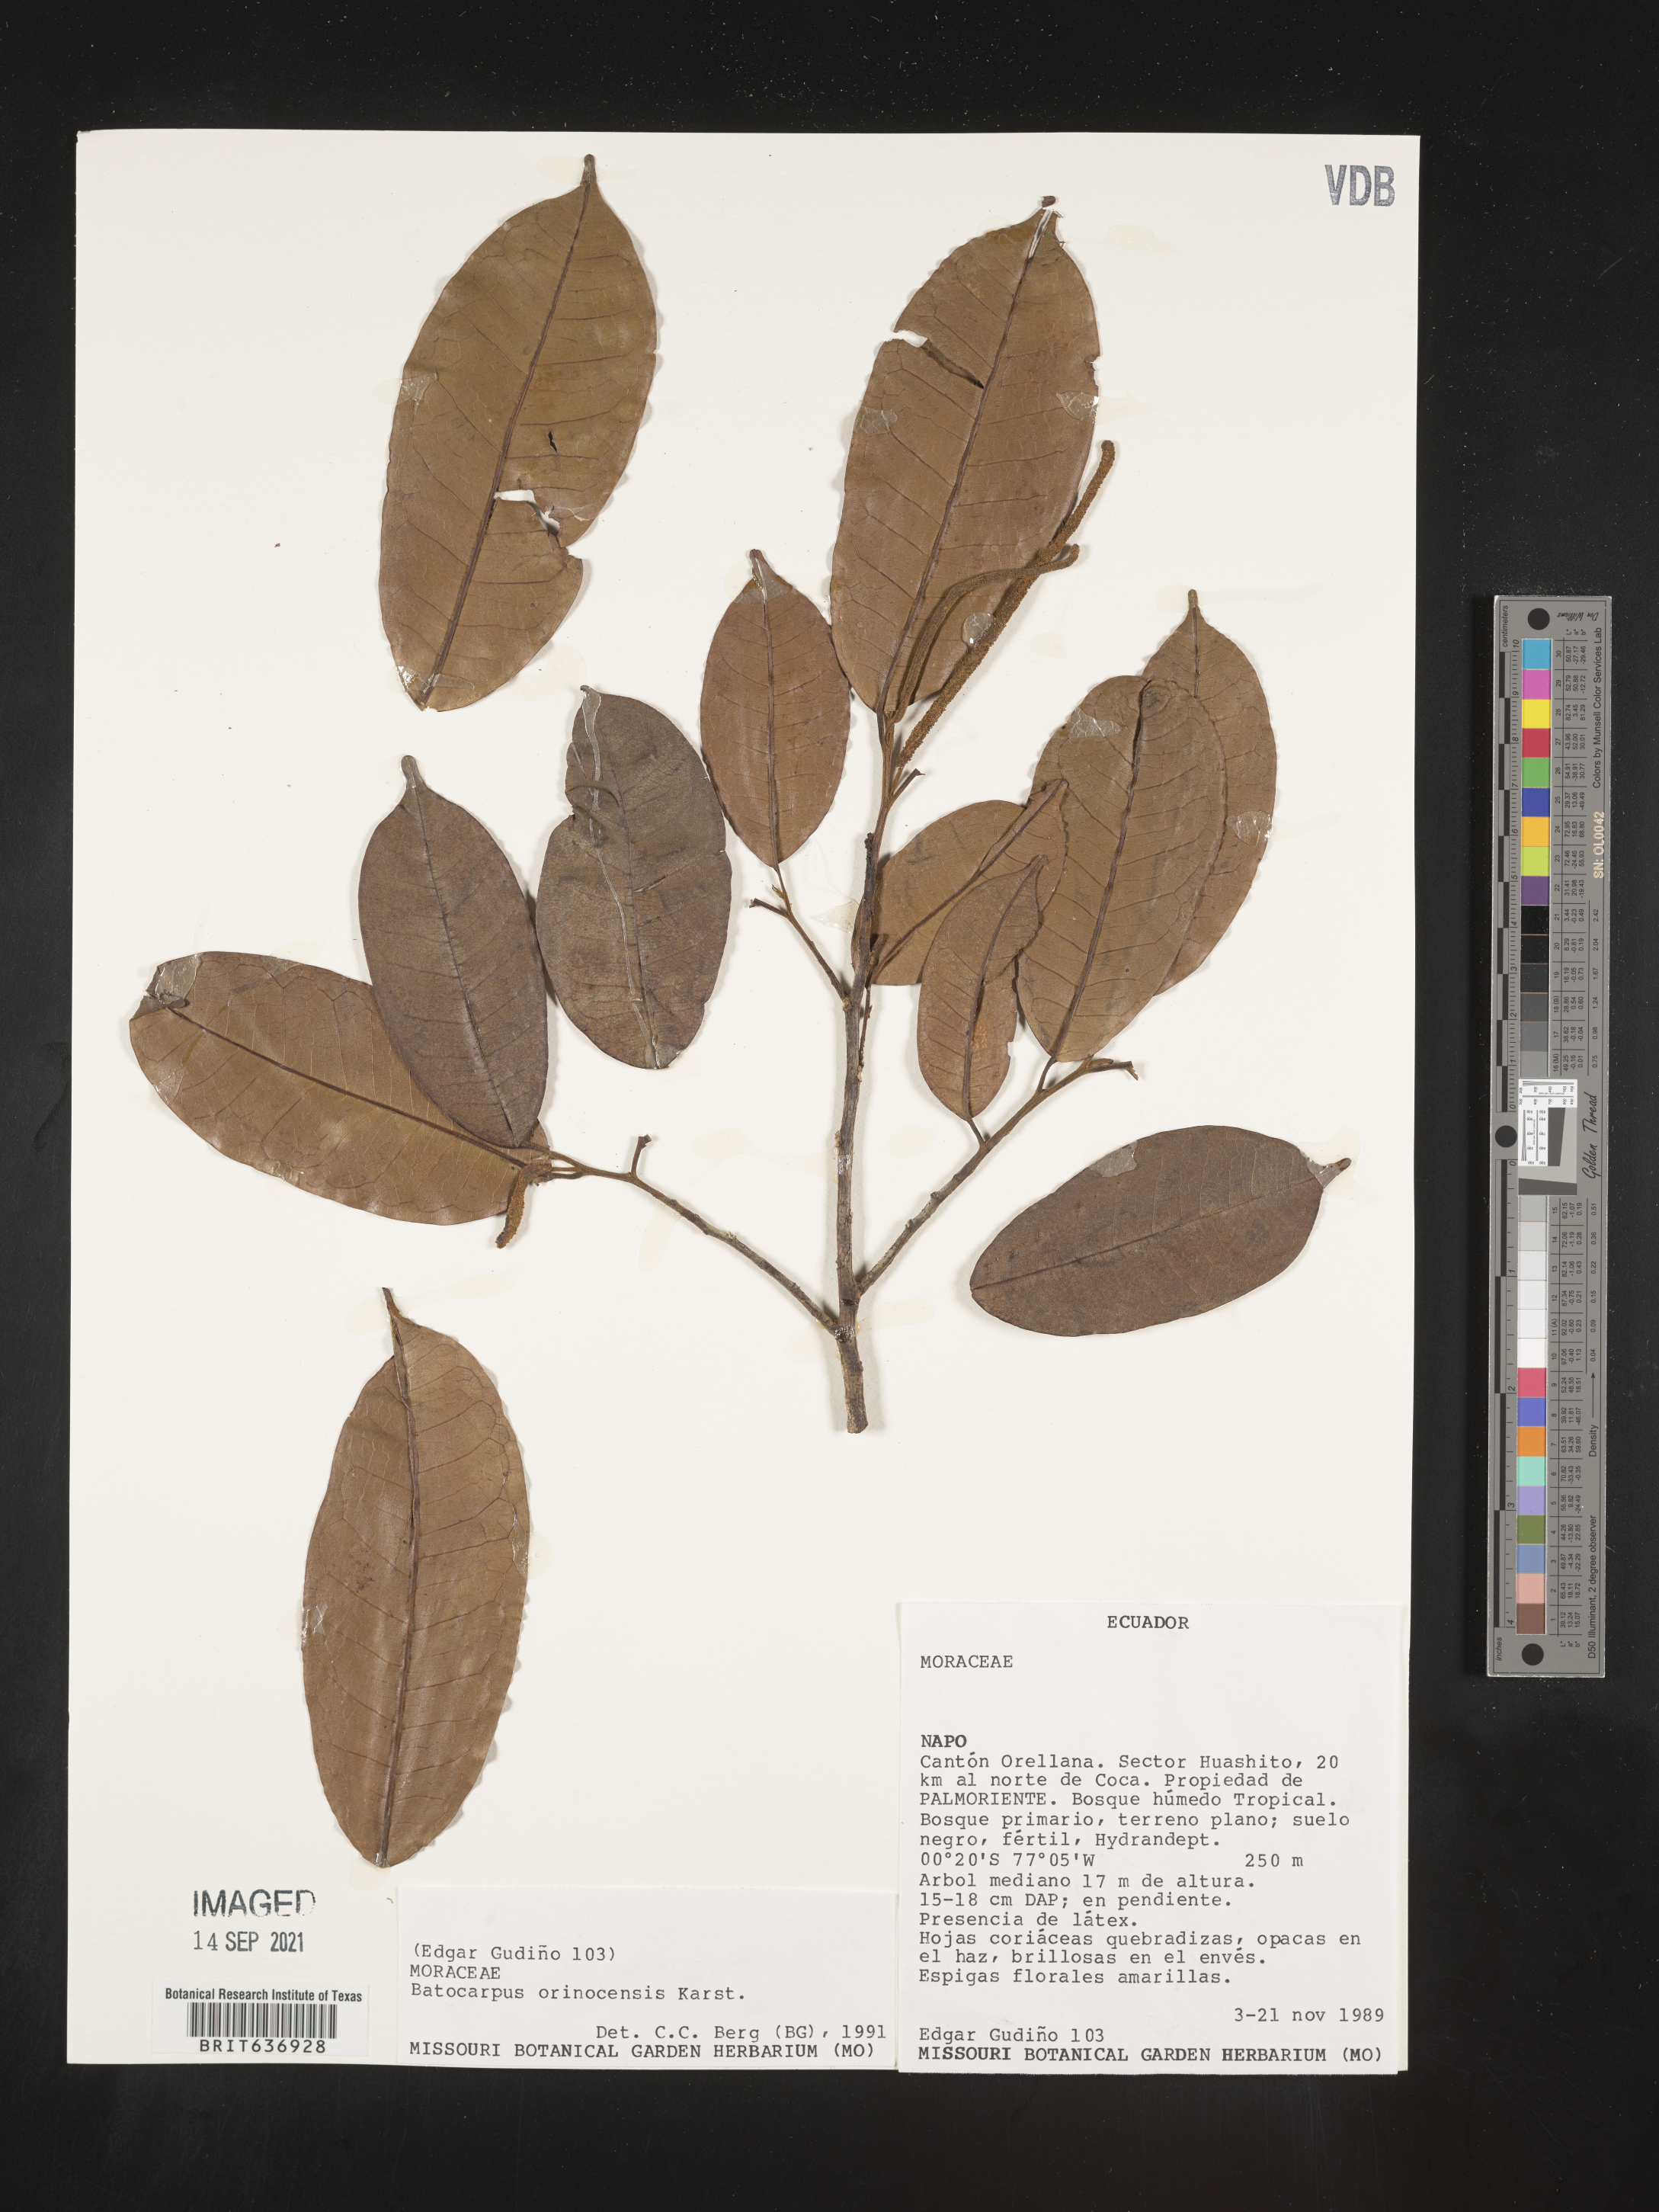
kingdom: Plantae
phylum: Tracheophyta
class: Magnoliopsida
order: Rosales
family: Moraceae
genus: Batocarpus
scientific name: Batocarpus
